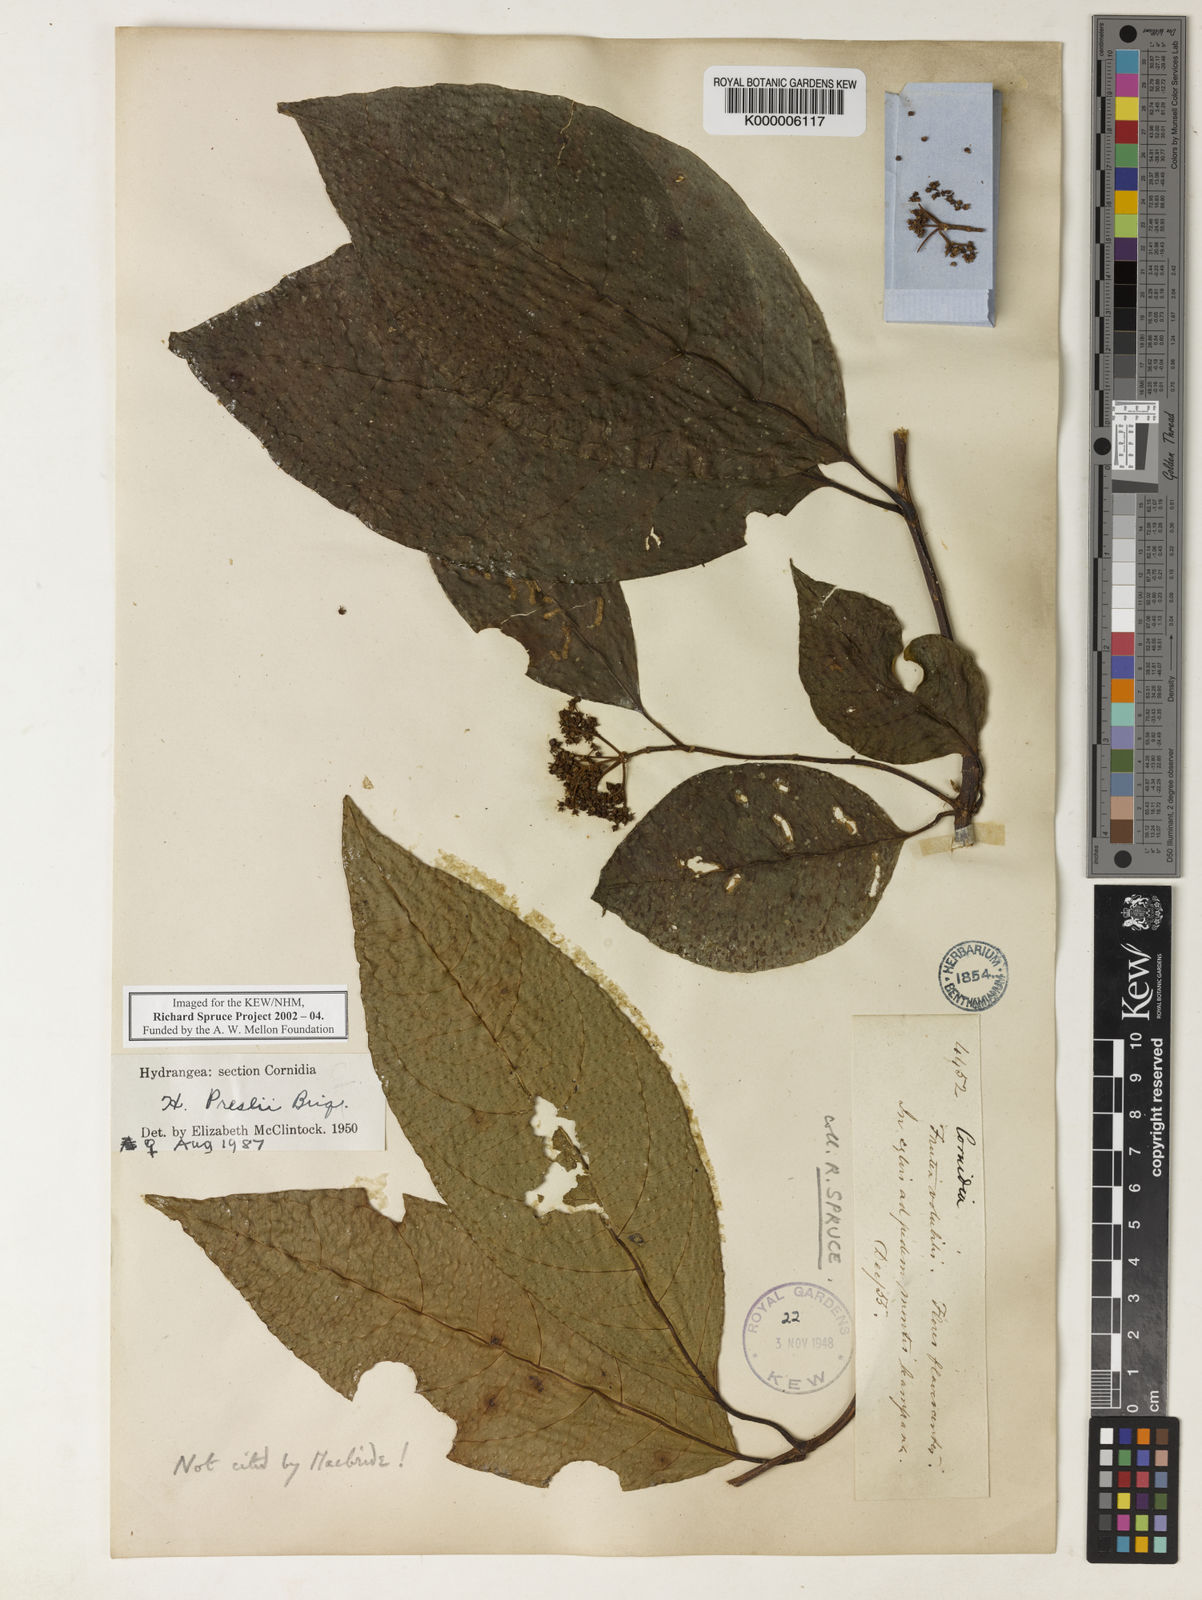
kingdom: Plantae
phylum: Tracheophyta
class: Magnoliopsida
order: Cornales
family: Hydrangeaceae
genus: Hydrangea
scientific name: Hydrangea diplostemona
